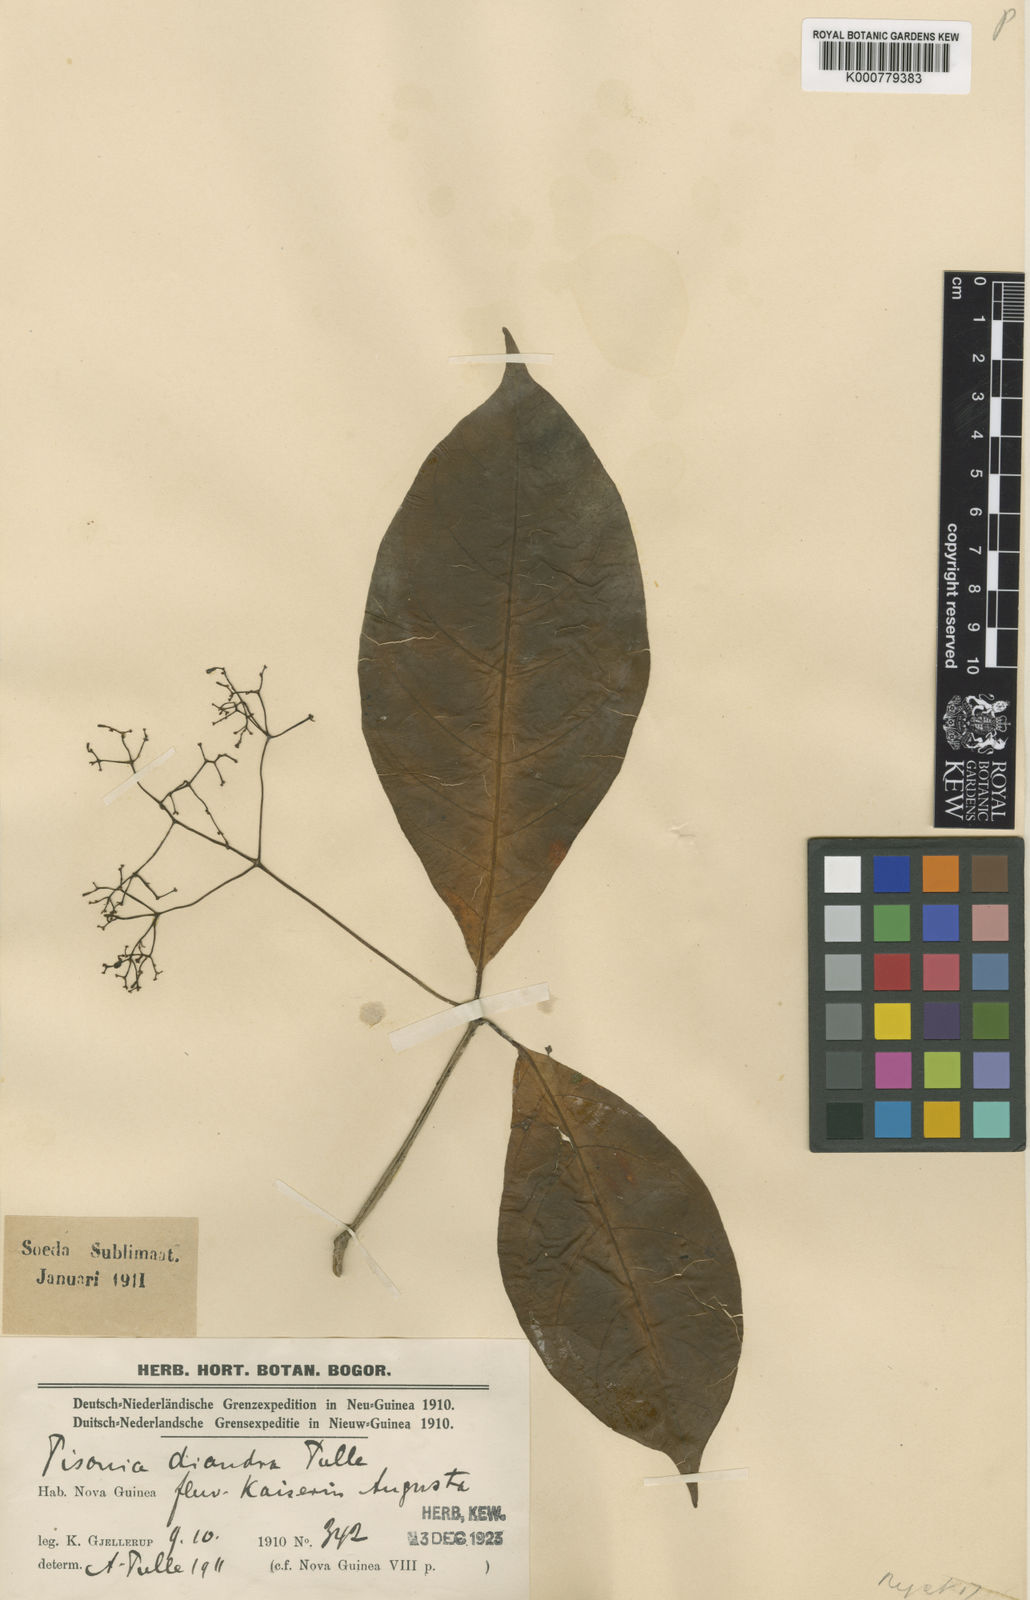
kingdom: Plantae
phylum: Tracheophyta
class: Magnoliopsida
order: Caryophyllales
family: Nyctaginaceae
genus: Ceodes
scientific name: Ceodes diandra
